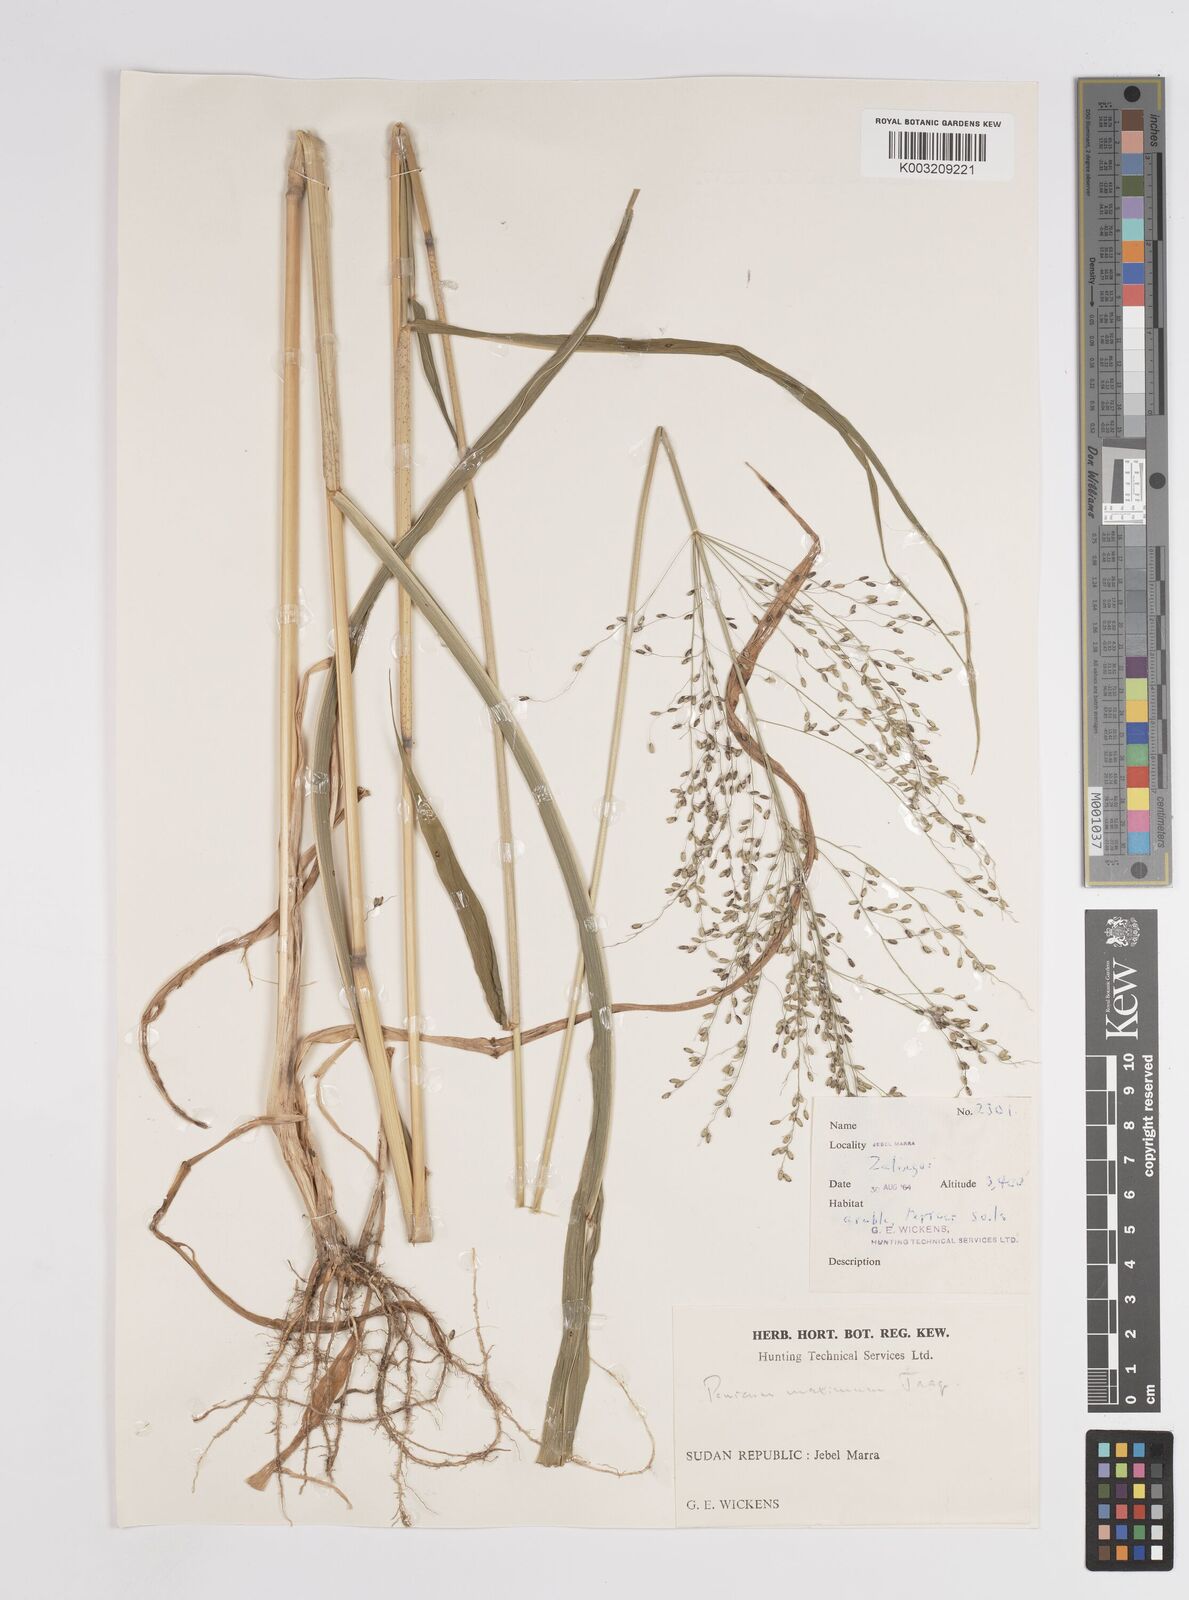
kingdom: Plantae
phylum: Tracheophyta
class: Liliopsida
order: Poales
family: Poaceae
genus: Megathyrsus
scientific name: Megathyrsus maximus
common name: Guineagrass
